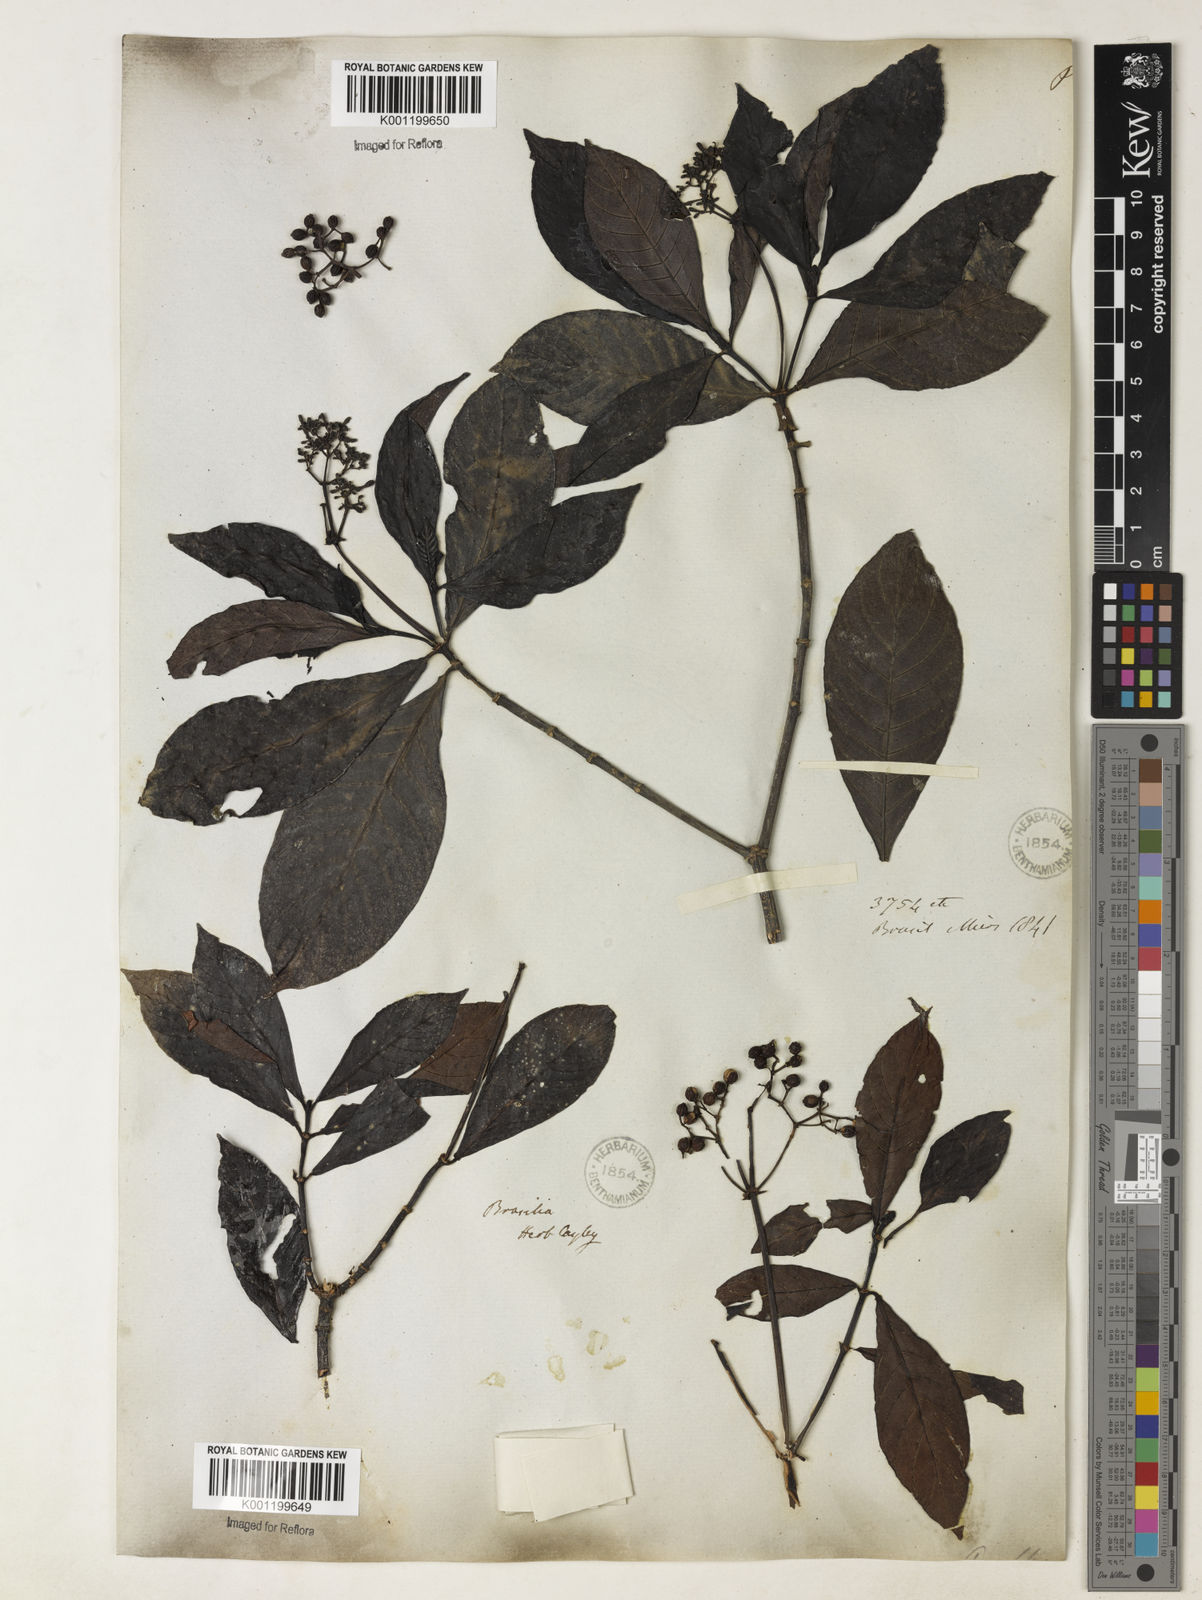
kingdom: Plantae
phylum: Tracheophyta
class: Magnoliopsida
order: Gentianales
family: Rubiaceae
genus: Psychotria
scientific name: Psychotria carthagenensis
